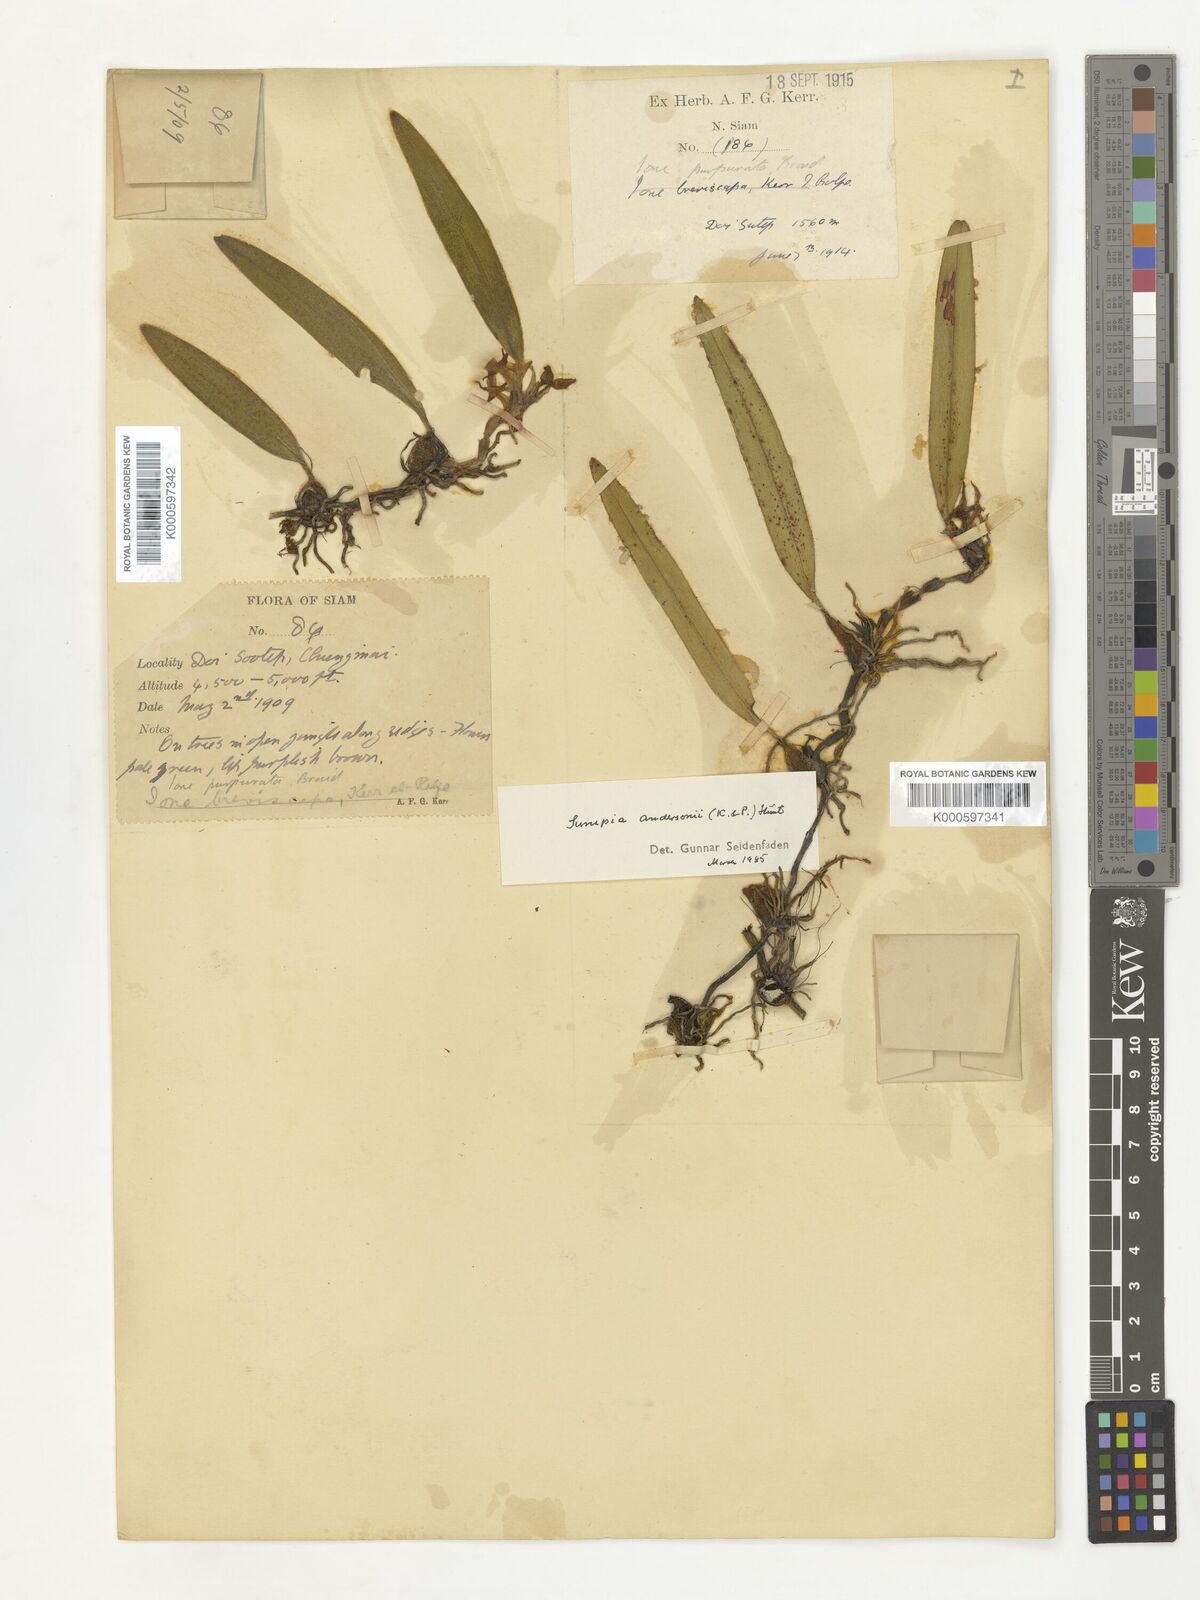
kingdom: Plantae
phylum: Tracheophyta
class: Liliopsida
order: Asparagales
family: Orchidaceae
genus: Bulbophyllum
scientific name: Bulbophyllum bifurcatoflorens
